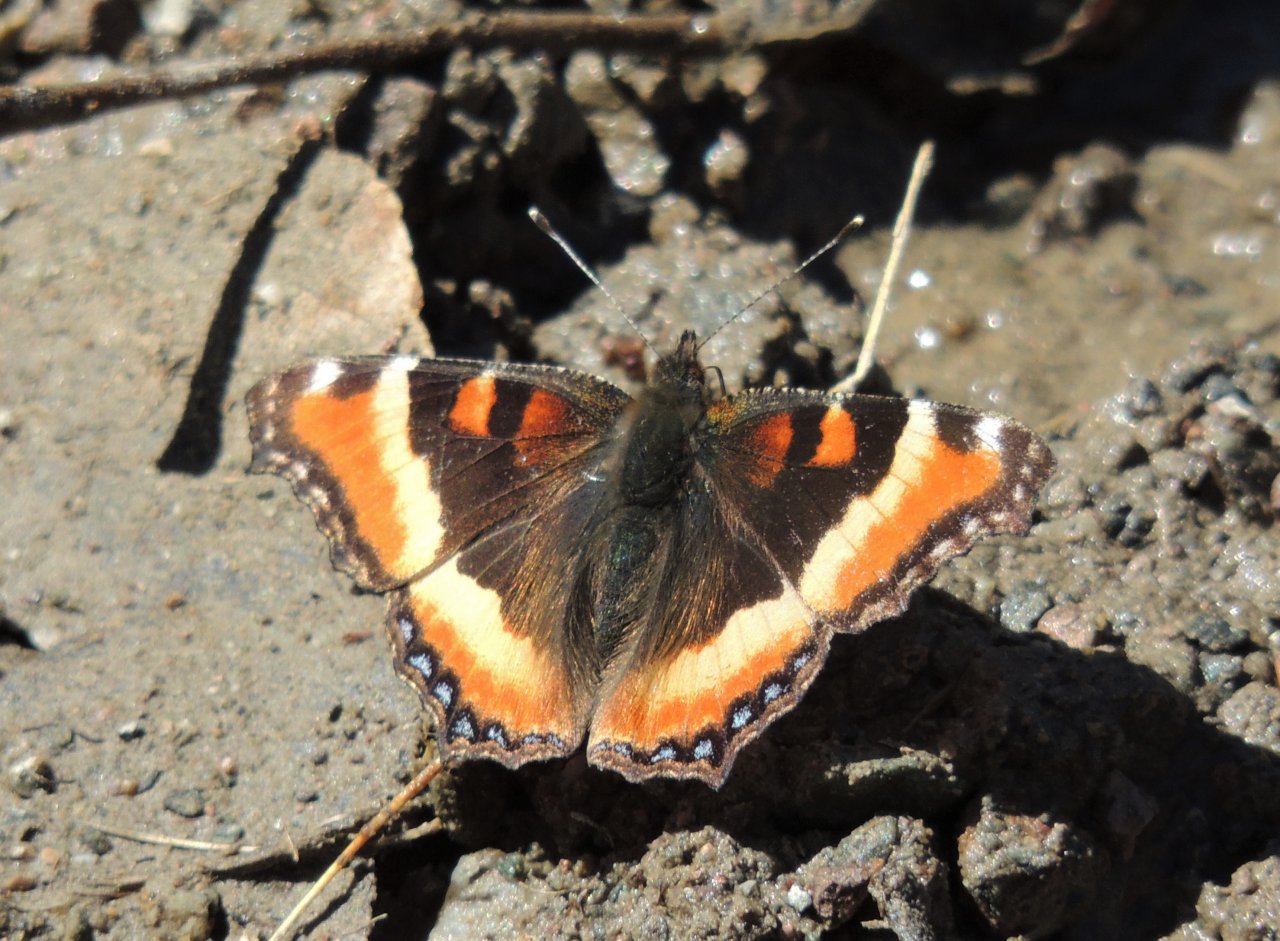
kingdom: Animalia
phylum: Arthropoda
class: Insecta
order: Lepidoptera
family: Nymphalidae
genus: Aglais
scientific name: Aglais milberti
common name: Milbert's Tortoiseshell
